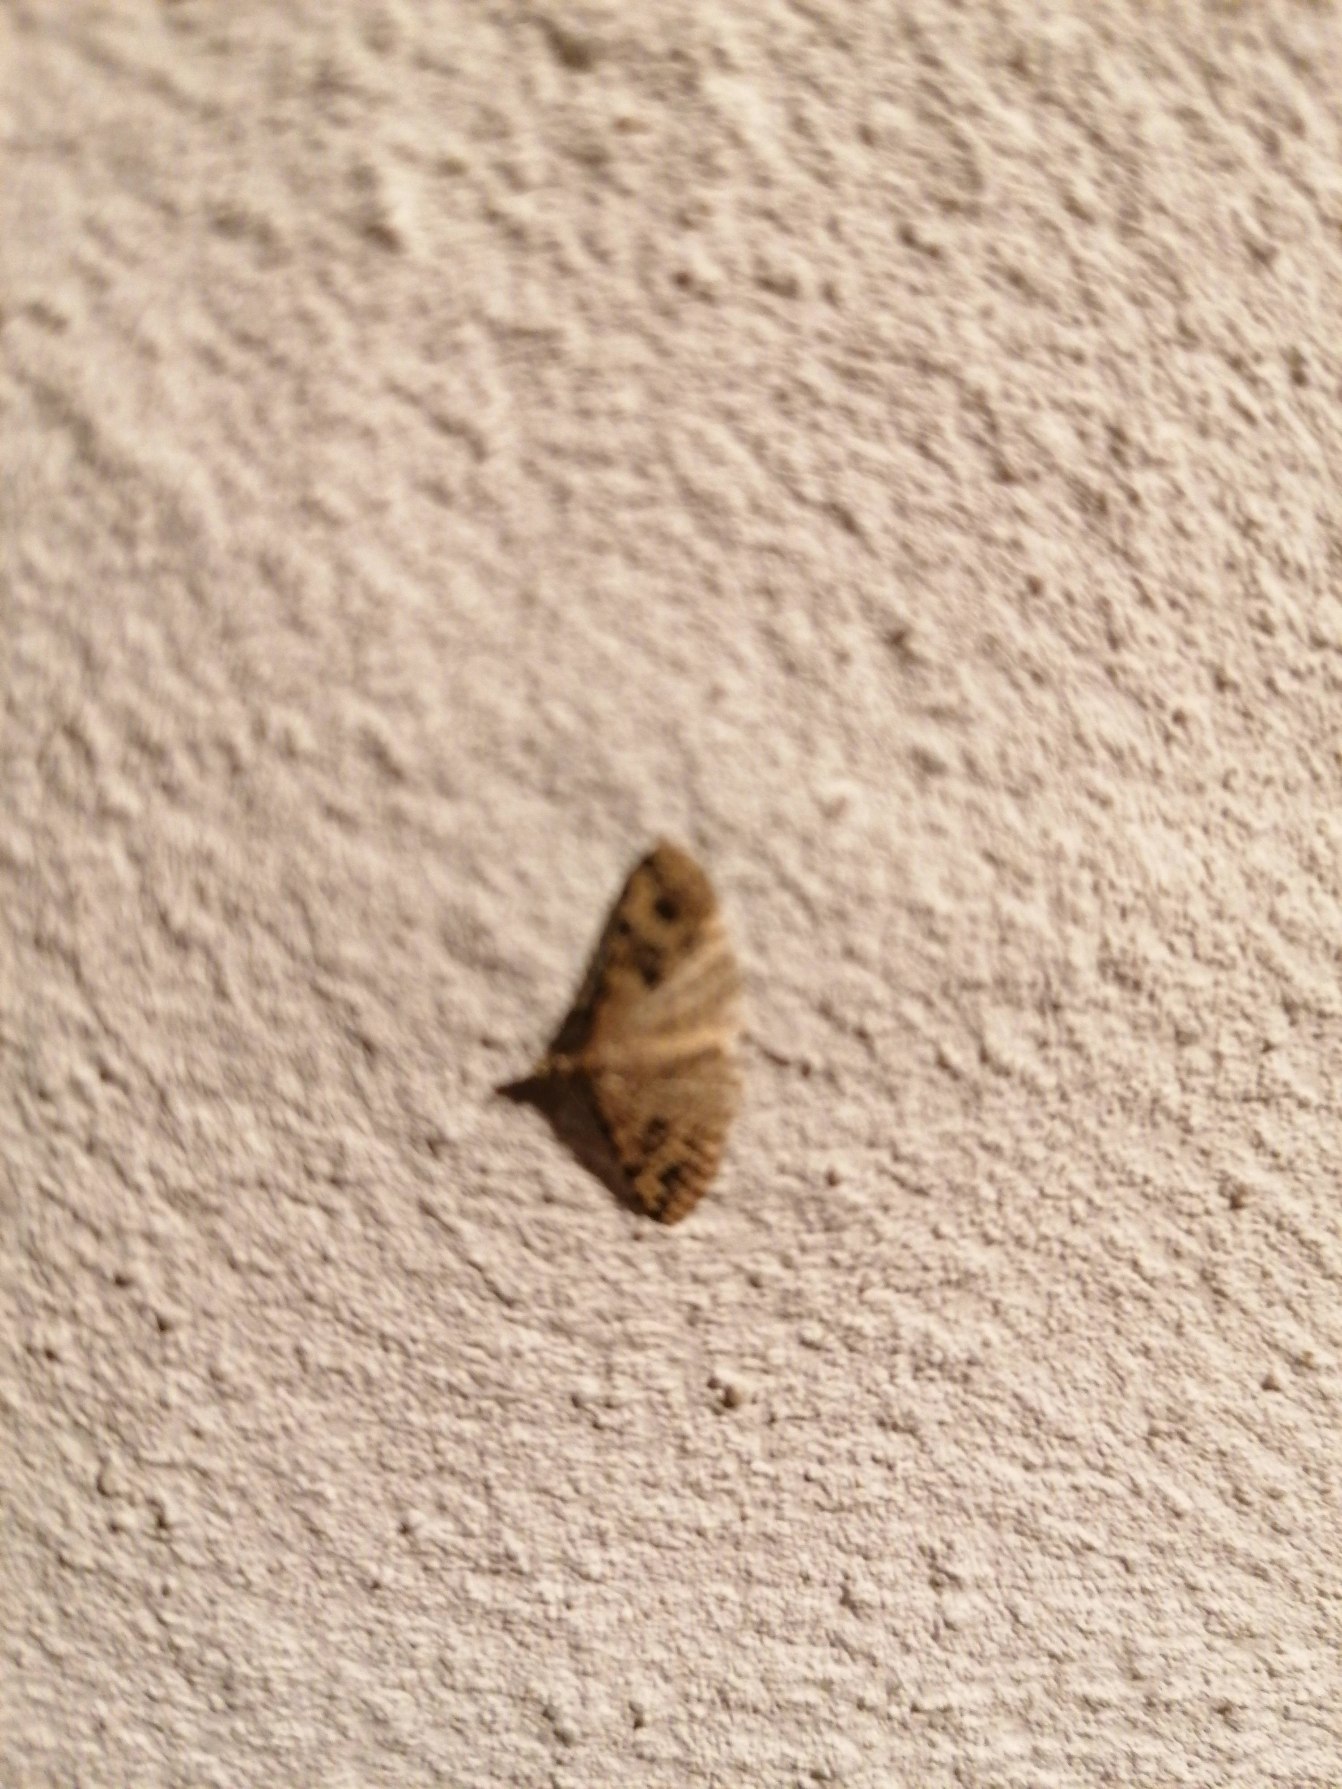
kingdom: Animalia
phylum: Arthropoda
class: Insecta
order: Lepidoptera
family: Alucitidae
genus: Alucita
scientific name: Alucita hexadactyla
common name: Kaprifoliefjermøl
